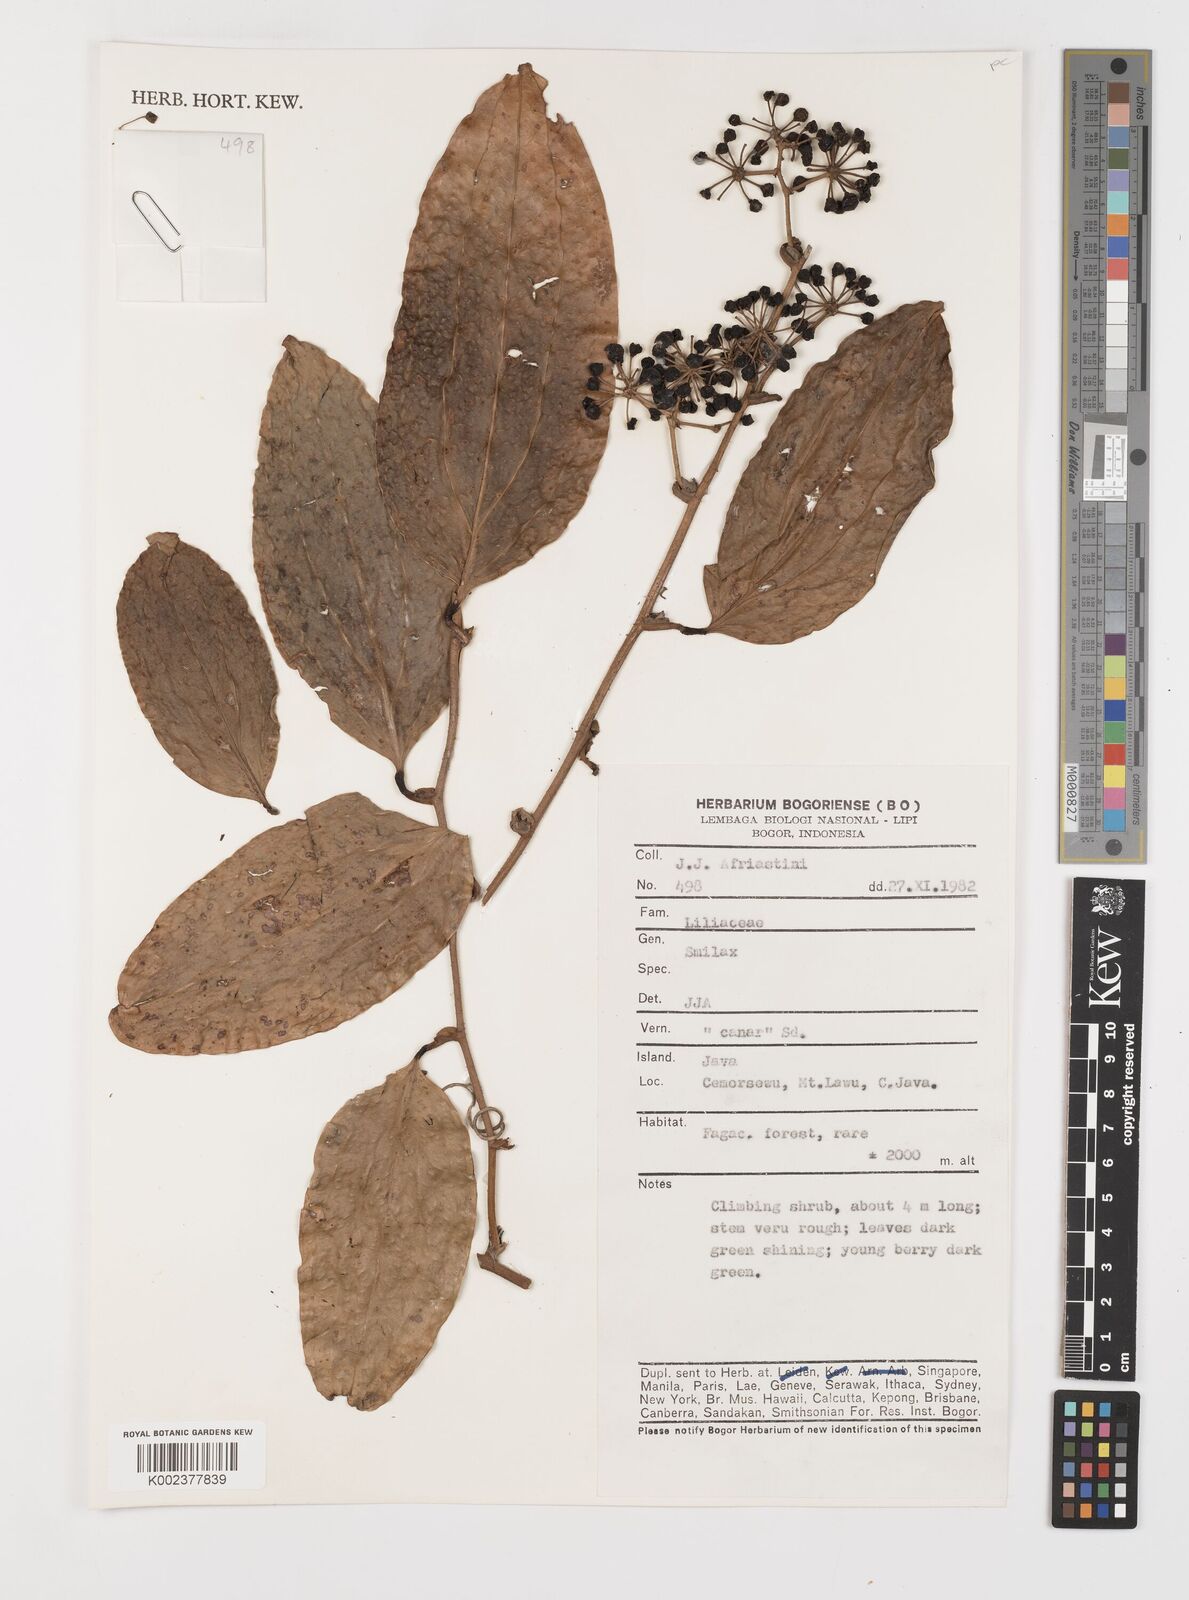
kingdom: Plantae
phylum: Tracheophyta
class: Liliopsida
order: Liliales
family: Smilacaceae
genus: Smilax
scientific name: Smilax
